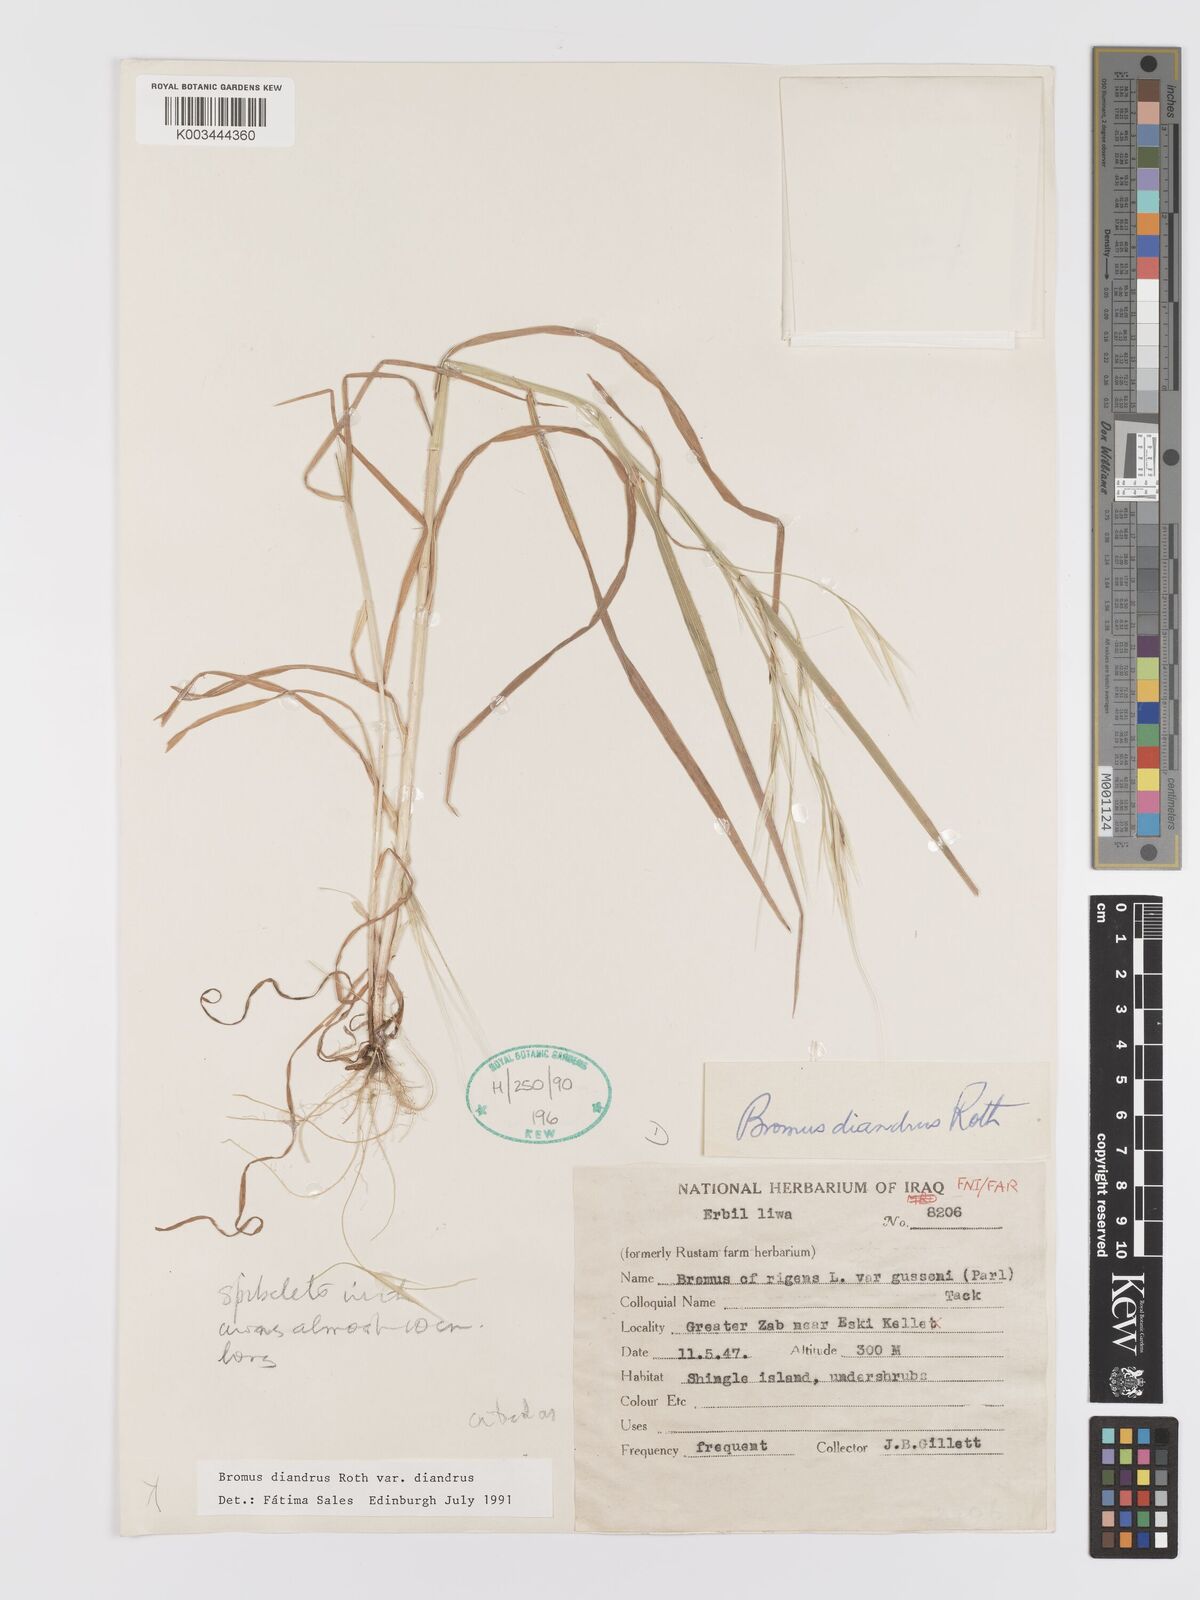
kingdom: Plantae
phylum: Tracheophyta
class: Liliopsida
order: Poales
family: Poaceae
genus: Bromus
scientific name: Bromus diandrus
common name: Ripgut brome
